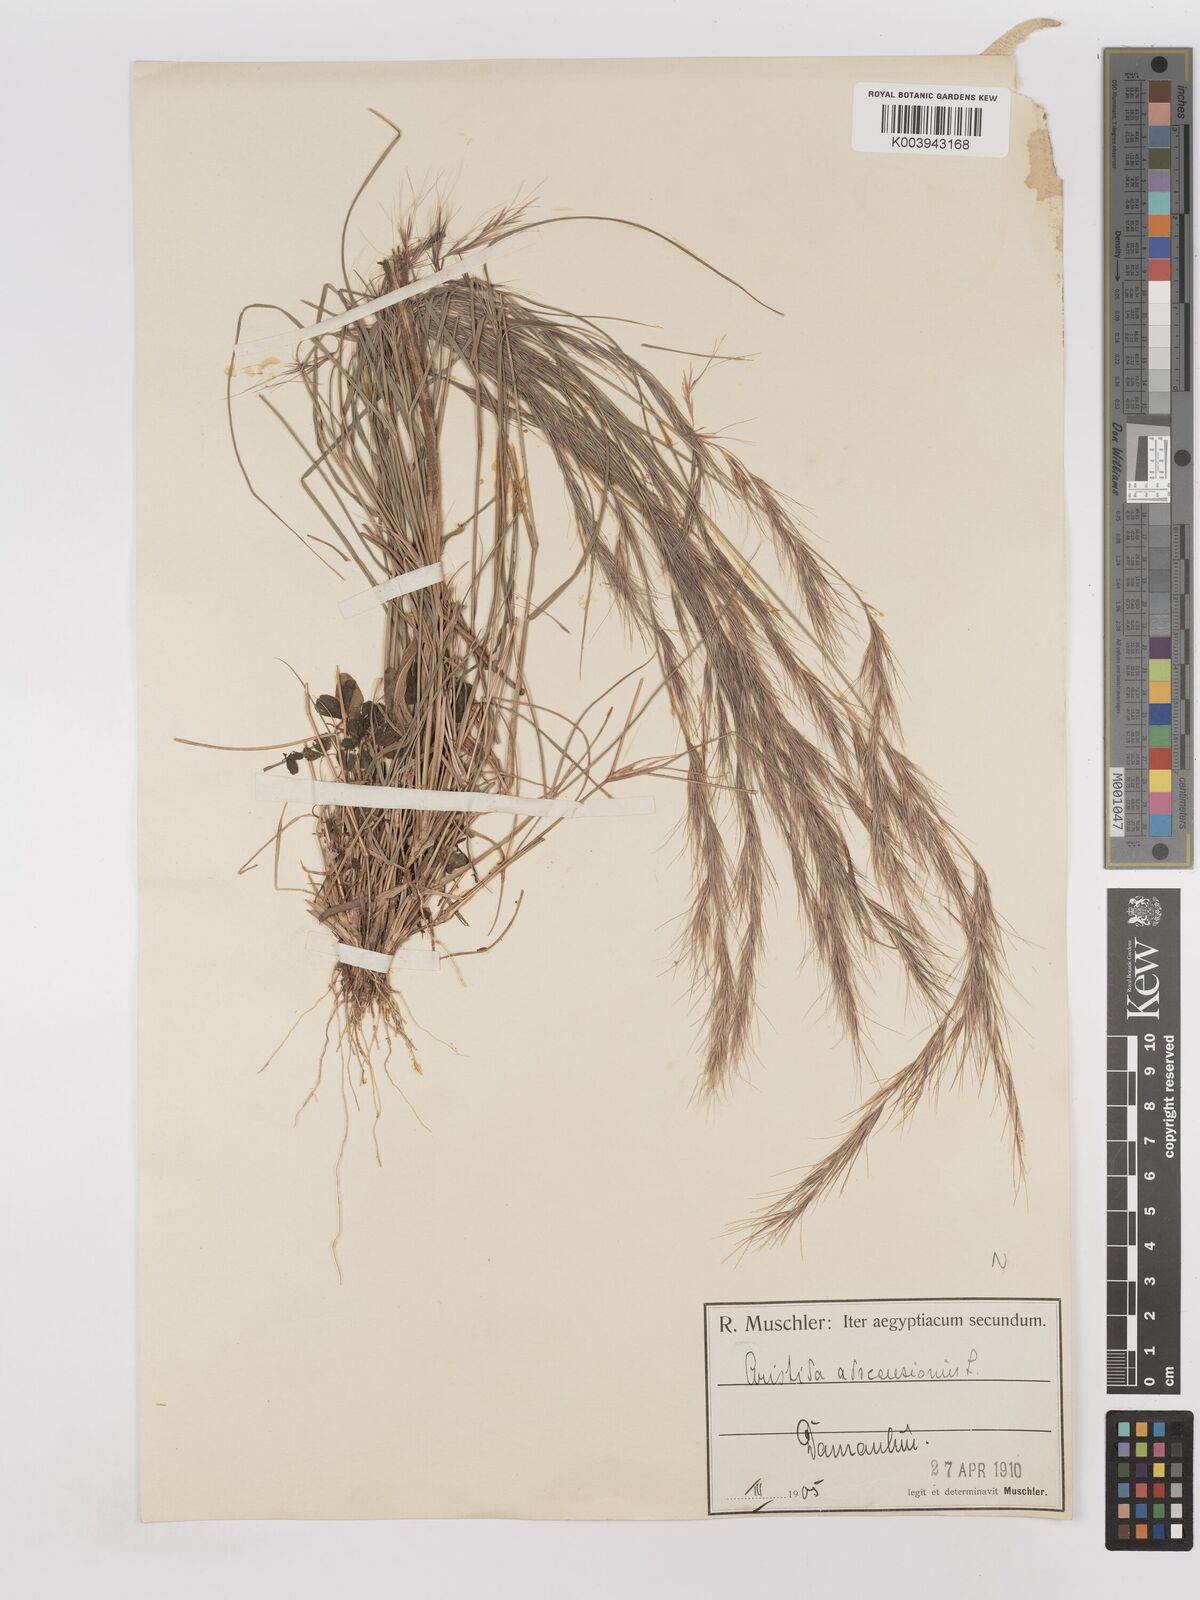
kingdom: Plantae
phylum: Tracheophyta
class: Liliopsida
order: Poales
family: Poaceae
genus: Aristida
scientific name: Aristida adscensionis
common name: Sixweeks threeawn
